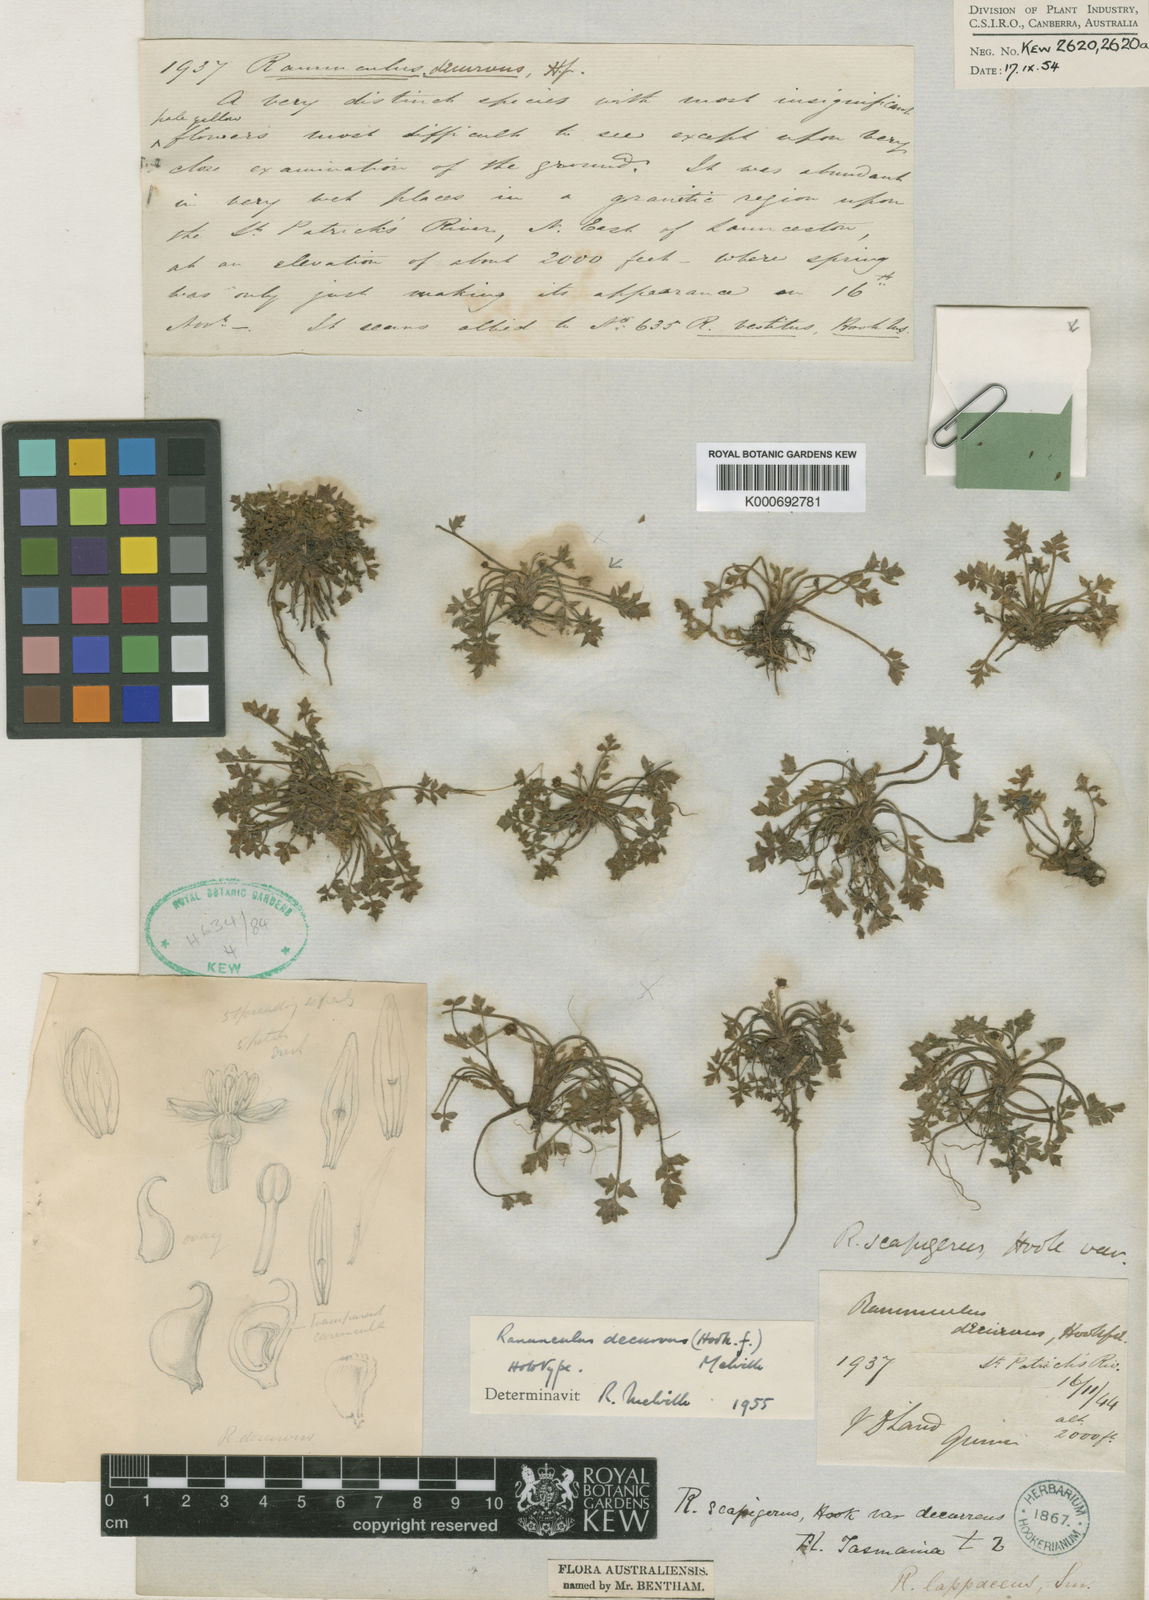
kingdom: Plantae
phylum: Tracheophyta
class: Magnoliopsida
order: Ranunculales
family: Ranunculaceae
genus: Ranunculus
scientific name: Ranunculus decurvus
